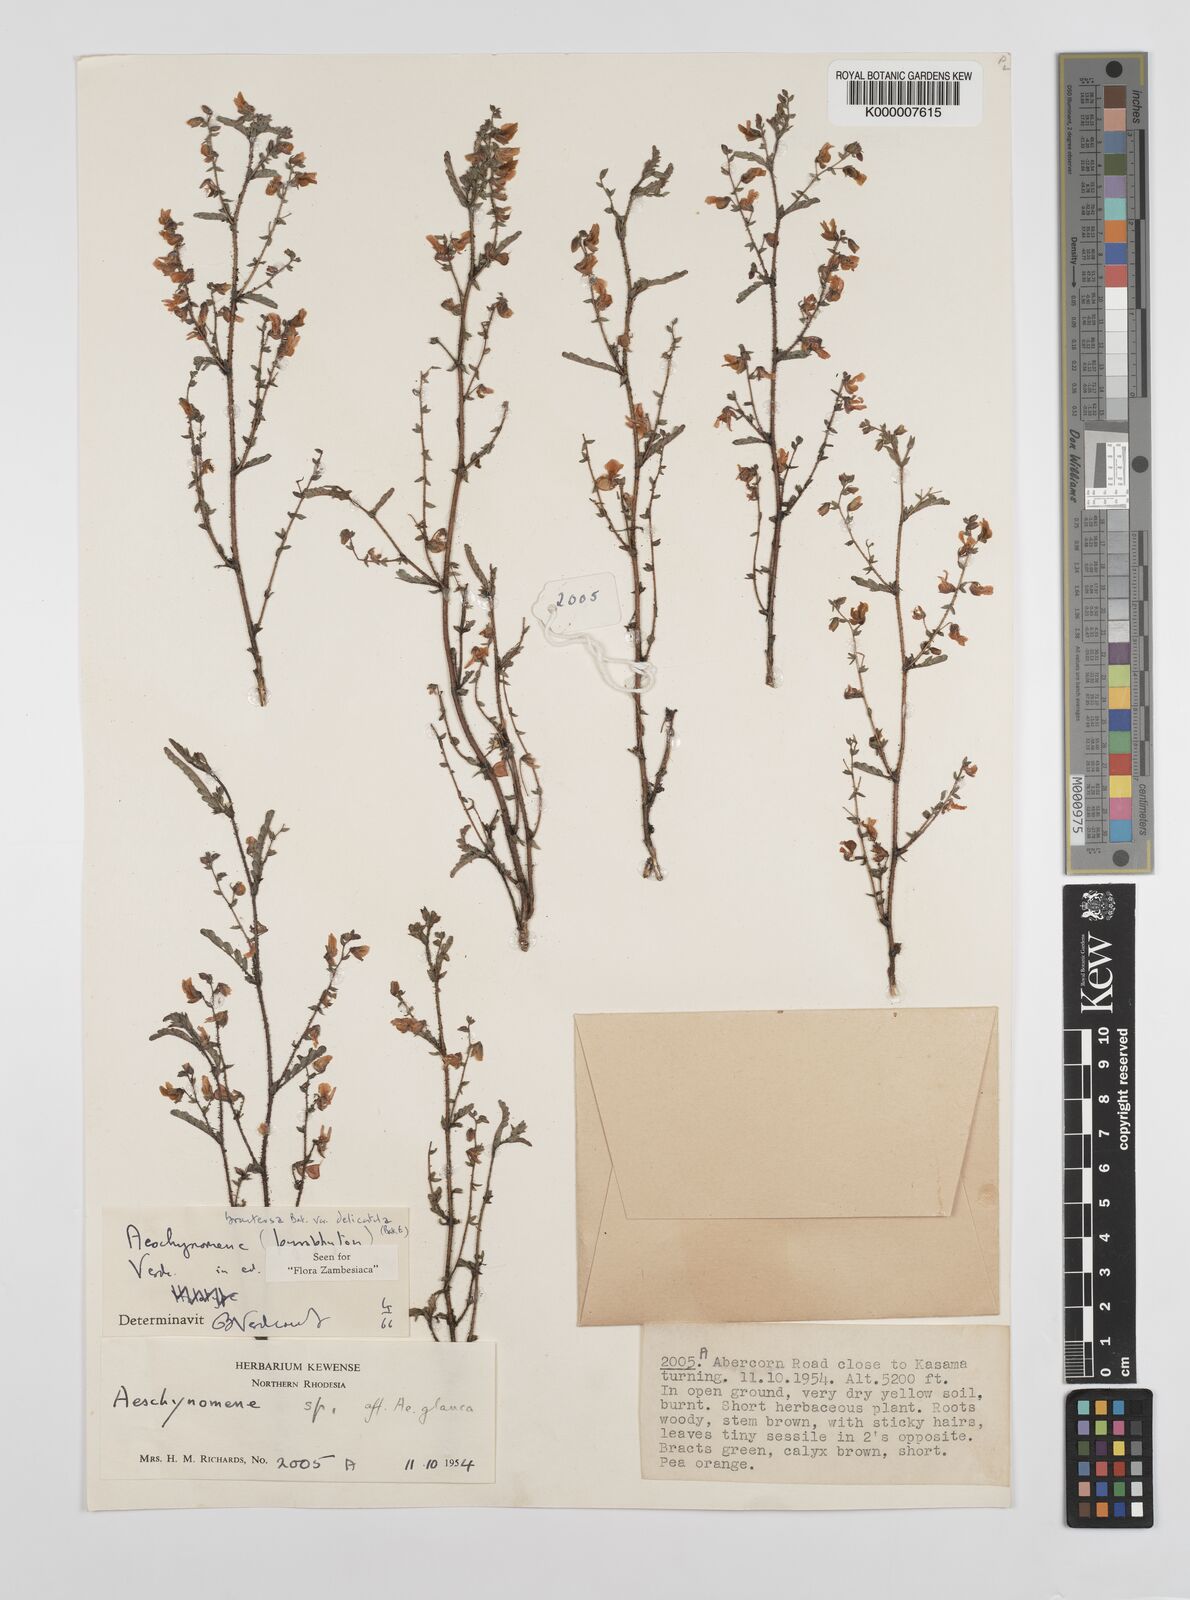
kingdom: Plantae
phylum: Tracheophyta
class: Magnoliopsida
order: Fabales
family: Fabaceae
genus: Aeschynomene
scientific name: Aeschynomene bracteosa
